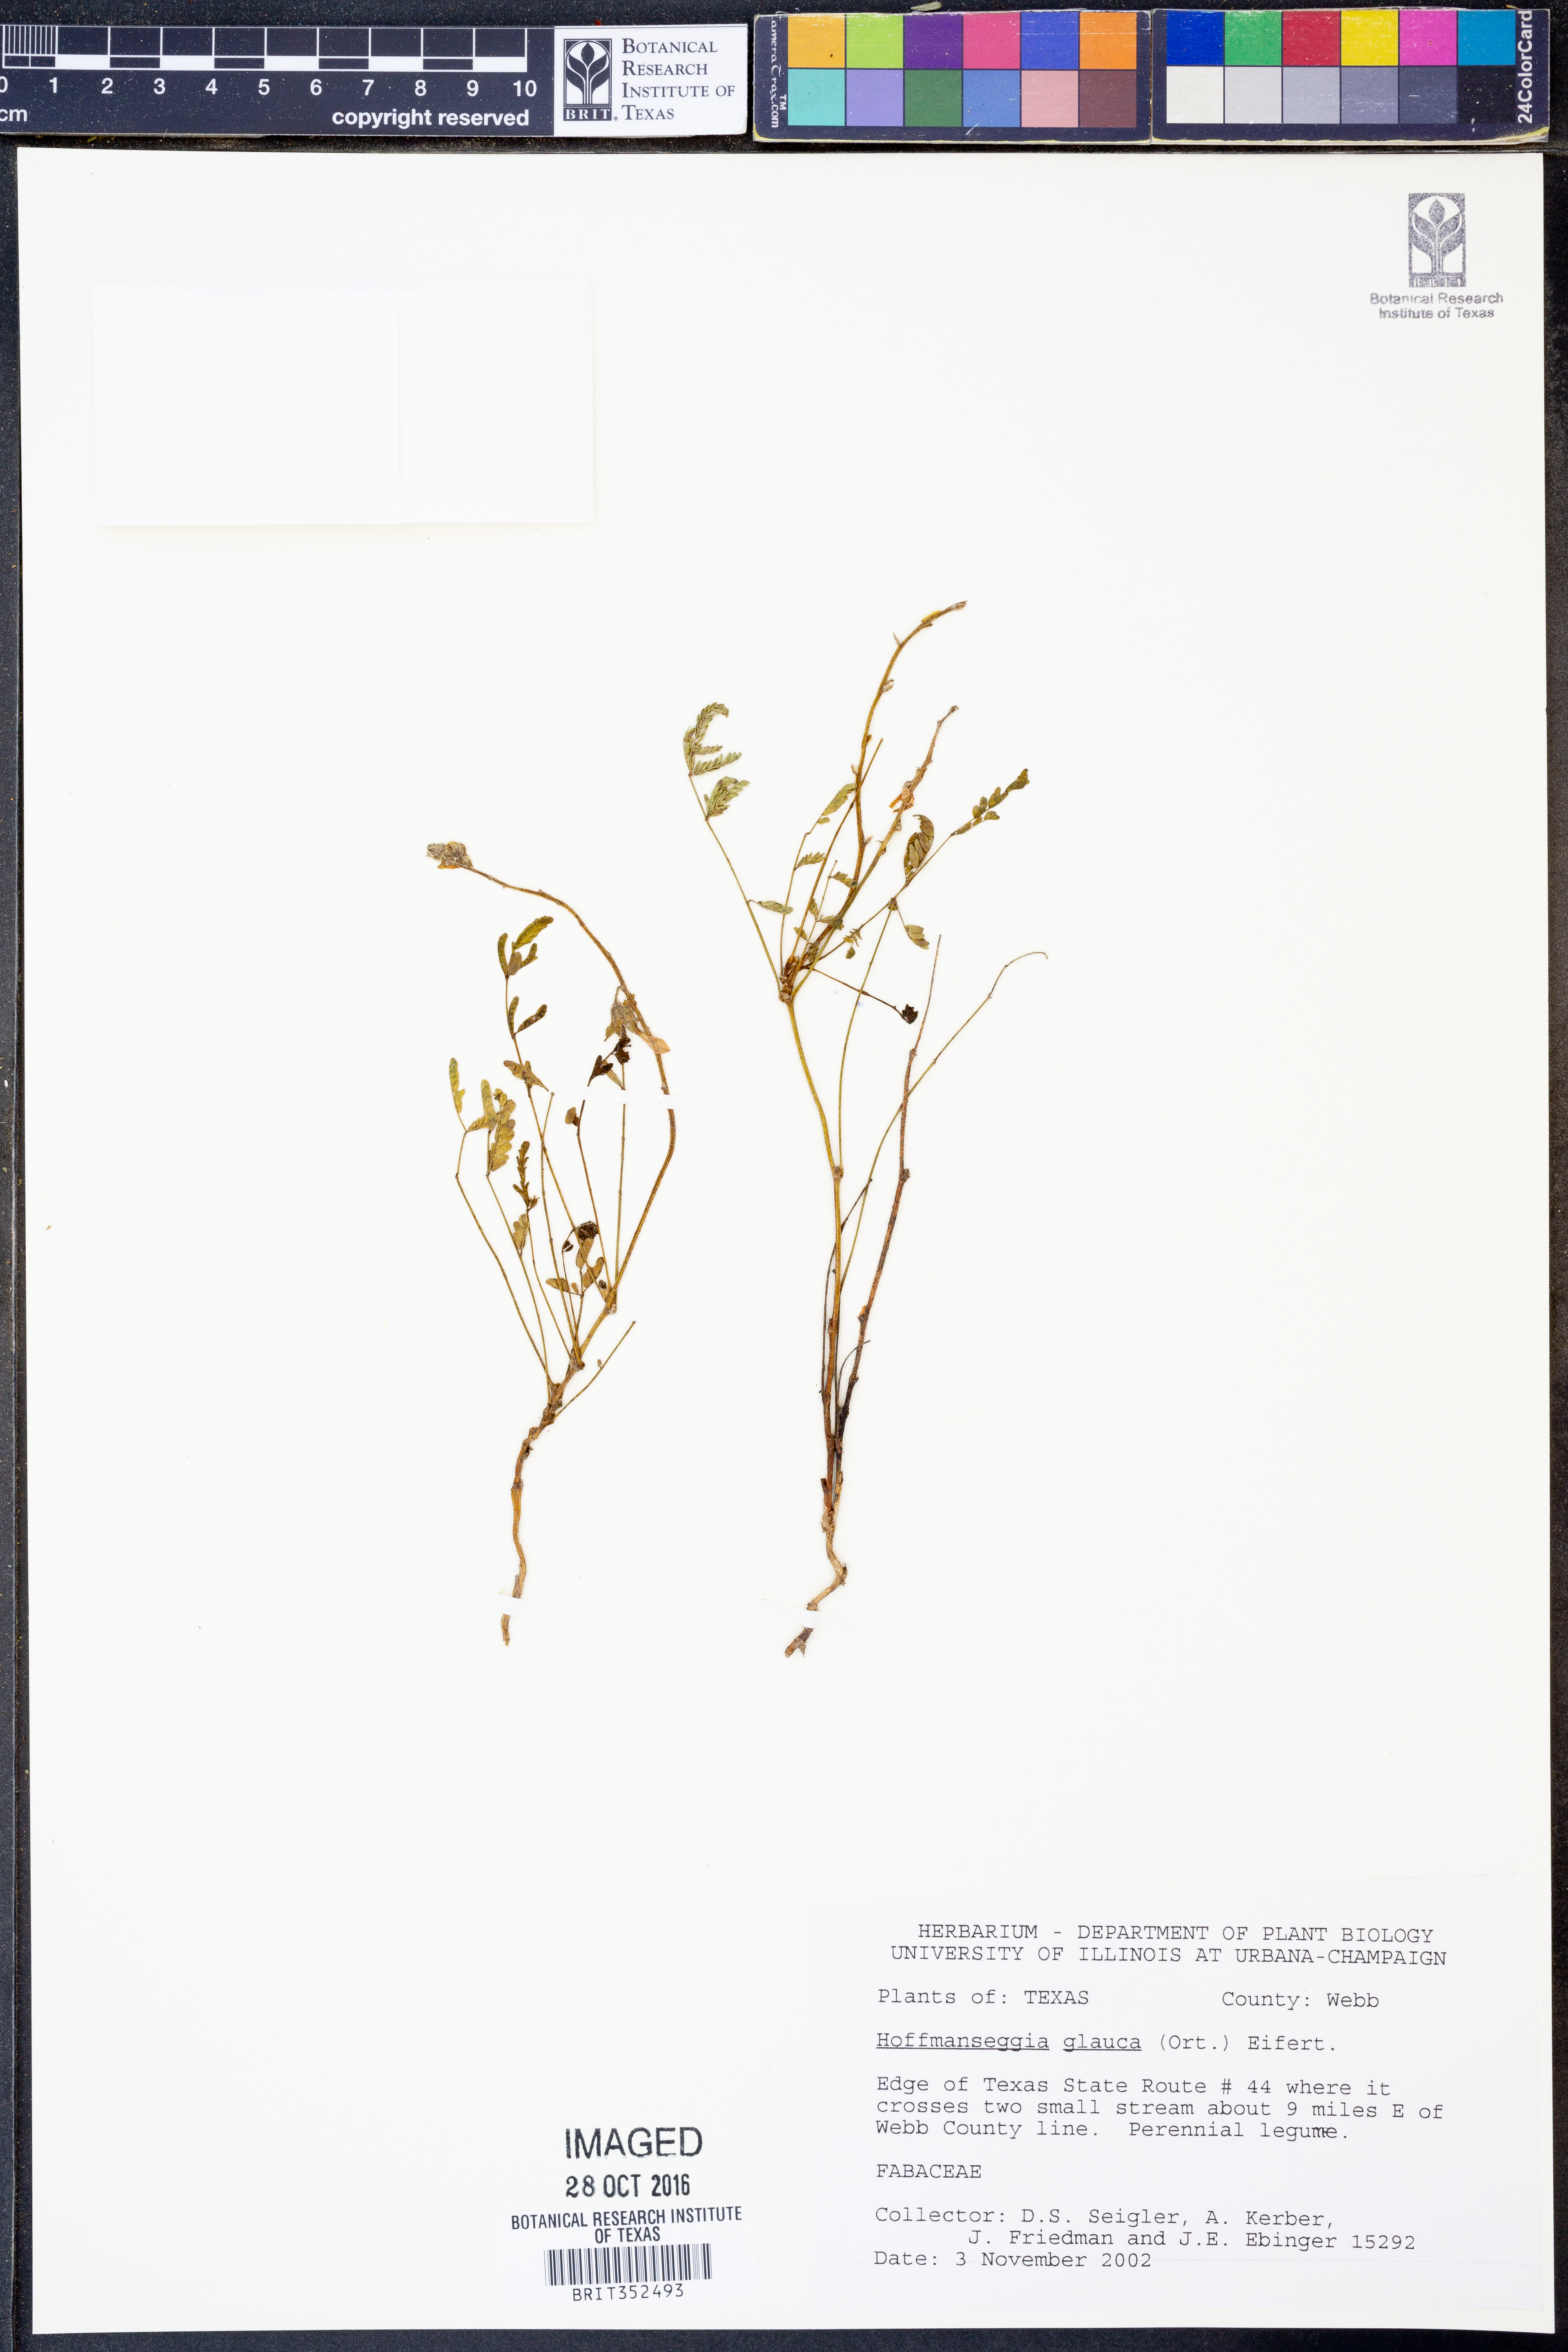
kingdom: Plantae
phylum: Tracheophyta
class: Magnoliopsida
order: Fabales
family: Fabaceae
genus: Hoffmannseggia
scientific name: Hoffmannseggia glauca
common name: Pignut
